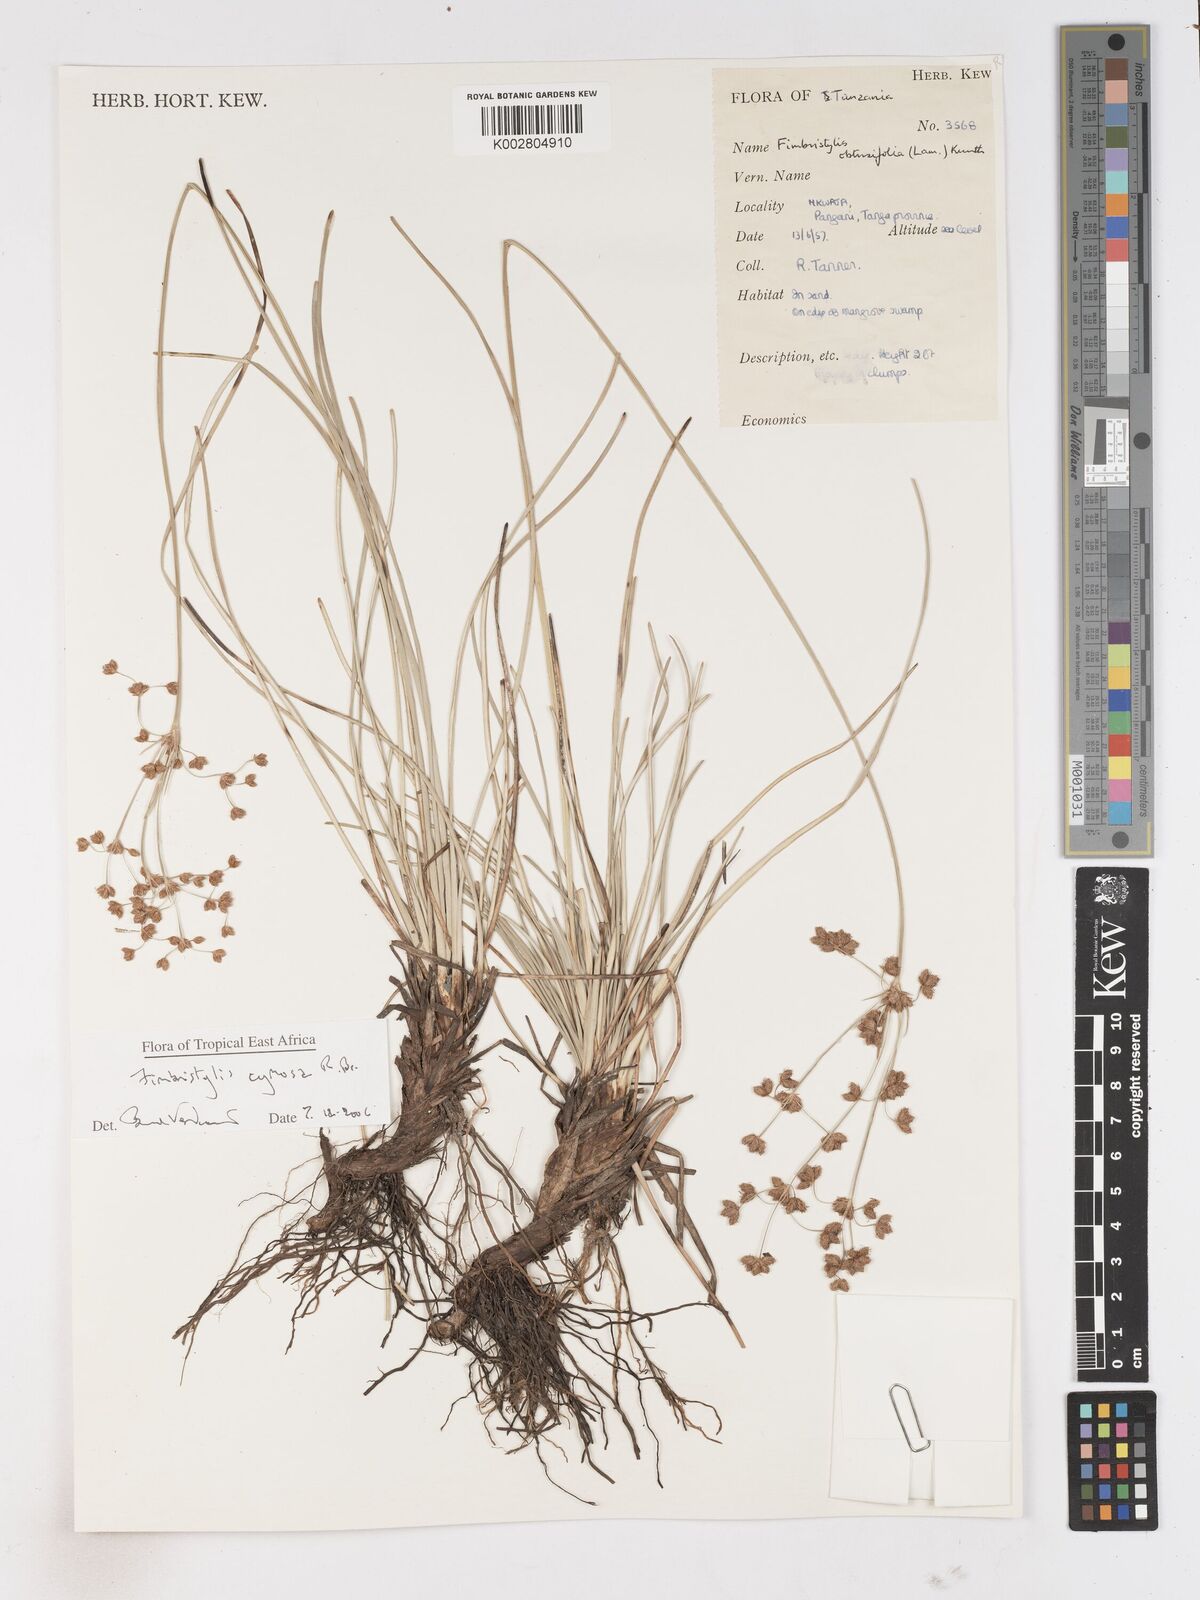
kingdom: Plantae
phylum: Tracheophyta
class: Liliopsida
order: Poales
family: Cyperaceae
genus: Fimbristylis
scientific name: Fimbristylis cymosa
